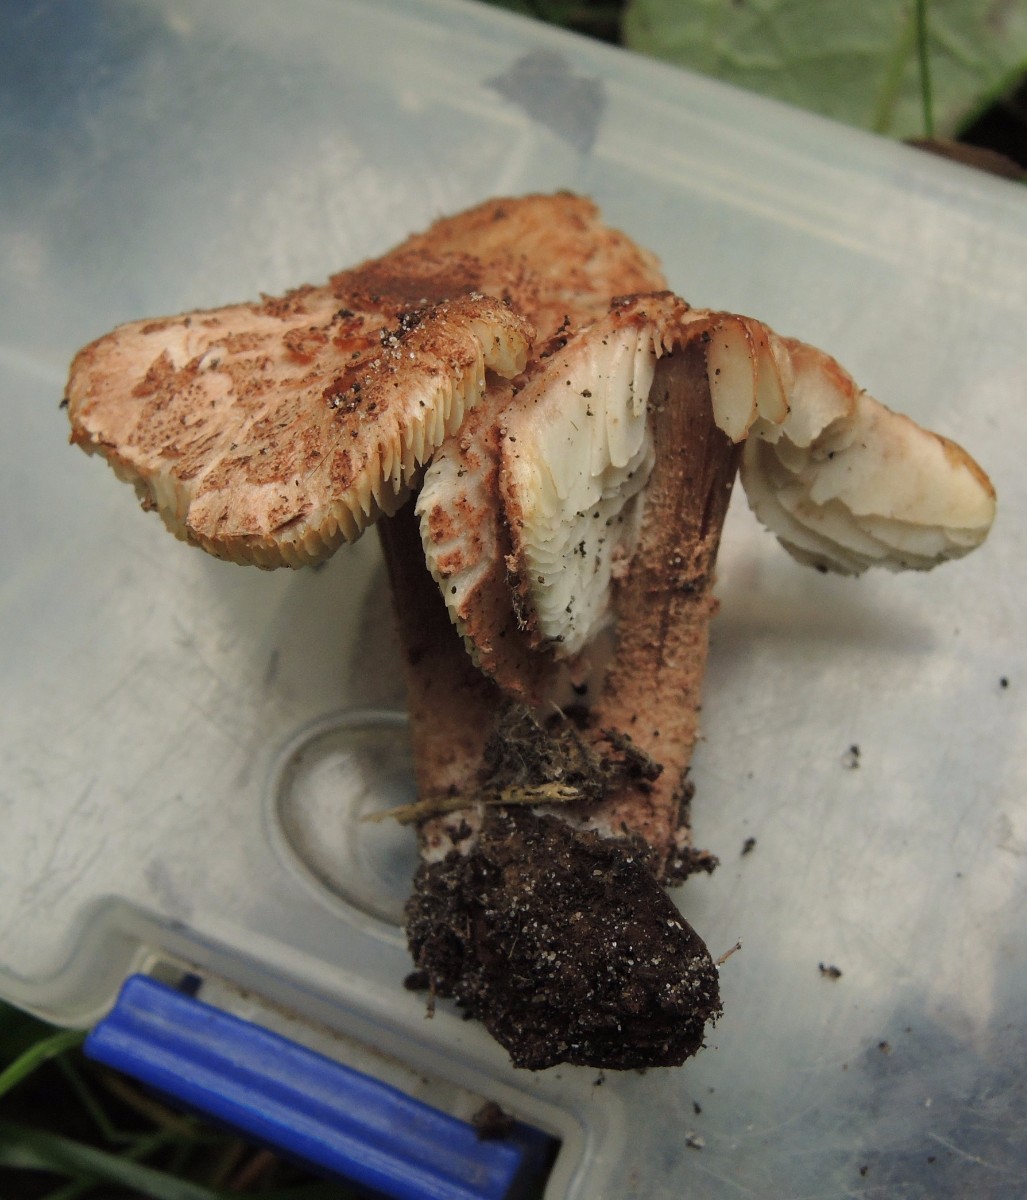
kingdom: Fungi
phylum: Basidiomycota
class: Agaricomycetes
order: Agaricales
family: Agaricaceae
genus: Cystolepiota
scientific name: Cystolepiota moelleri
